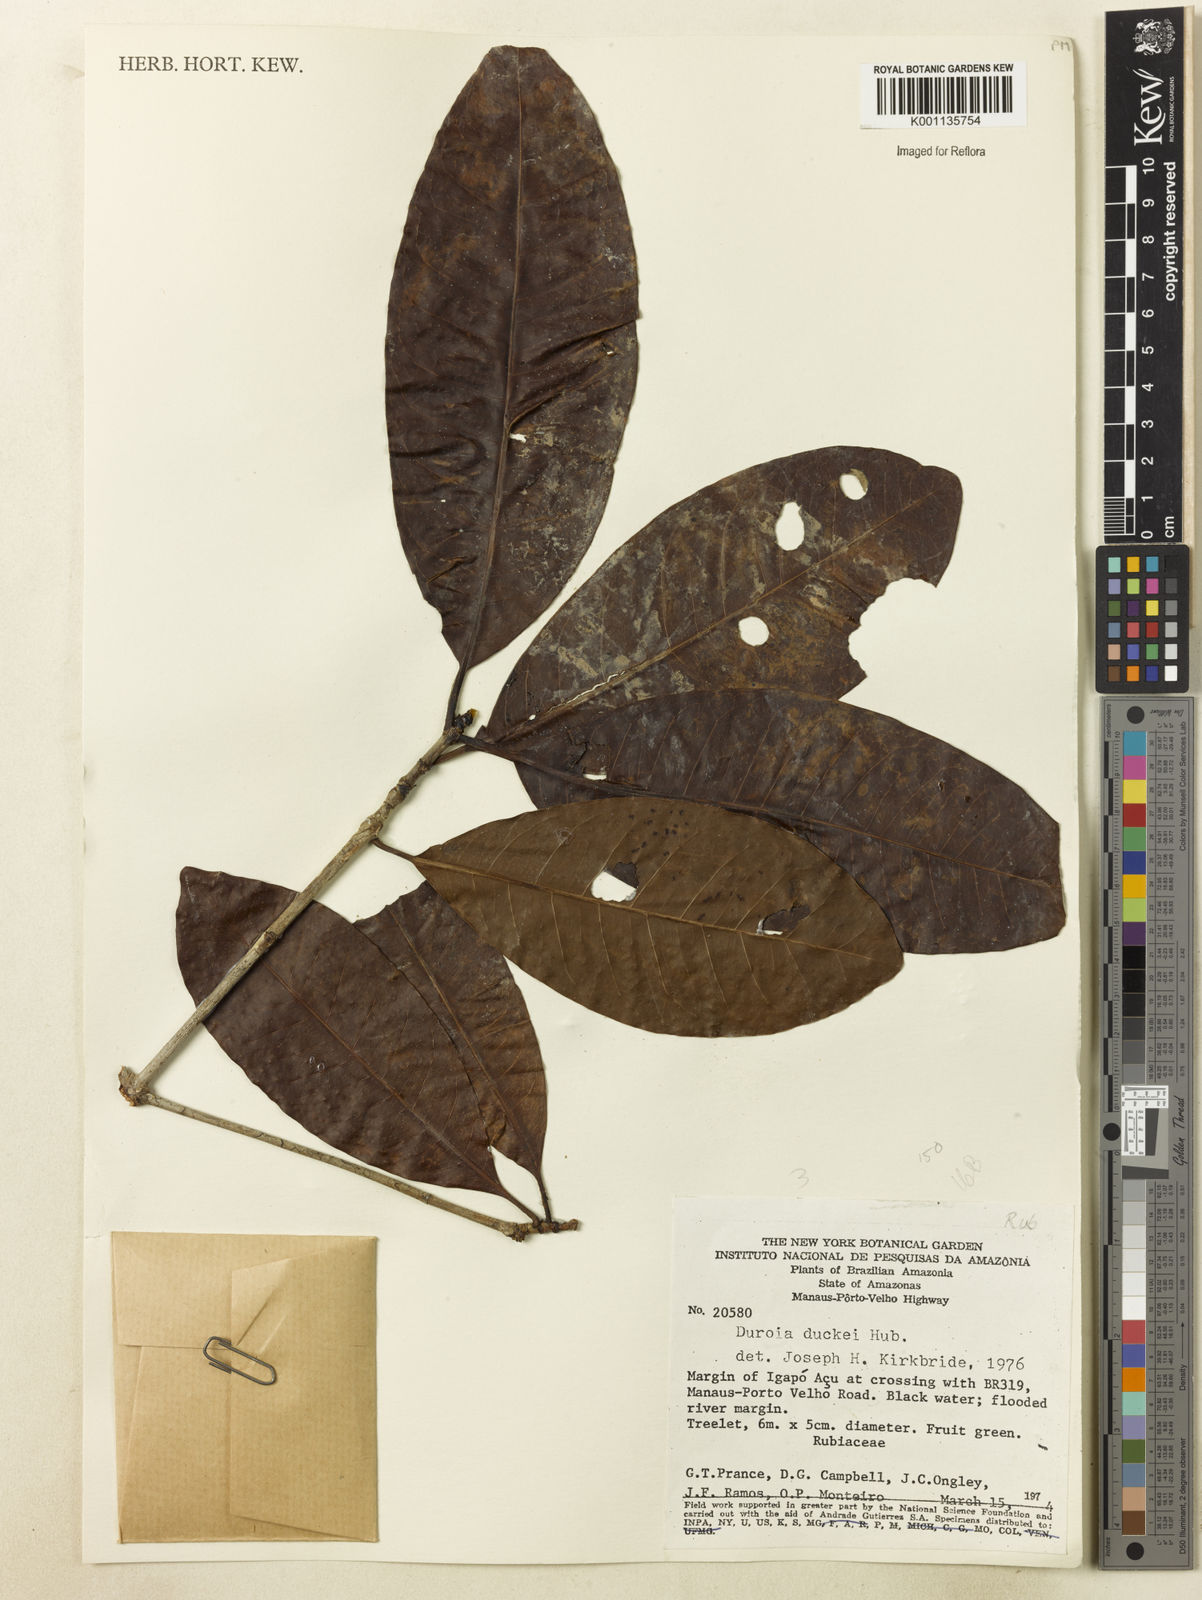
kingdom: Plantae
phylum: Tracheophyta
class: Magnoliopsida
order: Gentianales
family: Rubiaceae
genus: Duroia
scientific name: Duroia duckei
